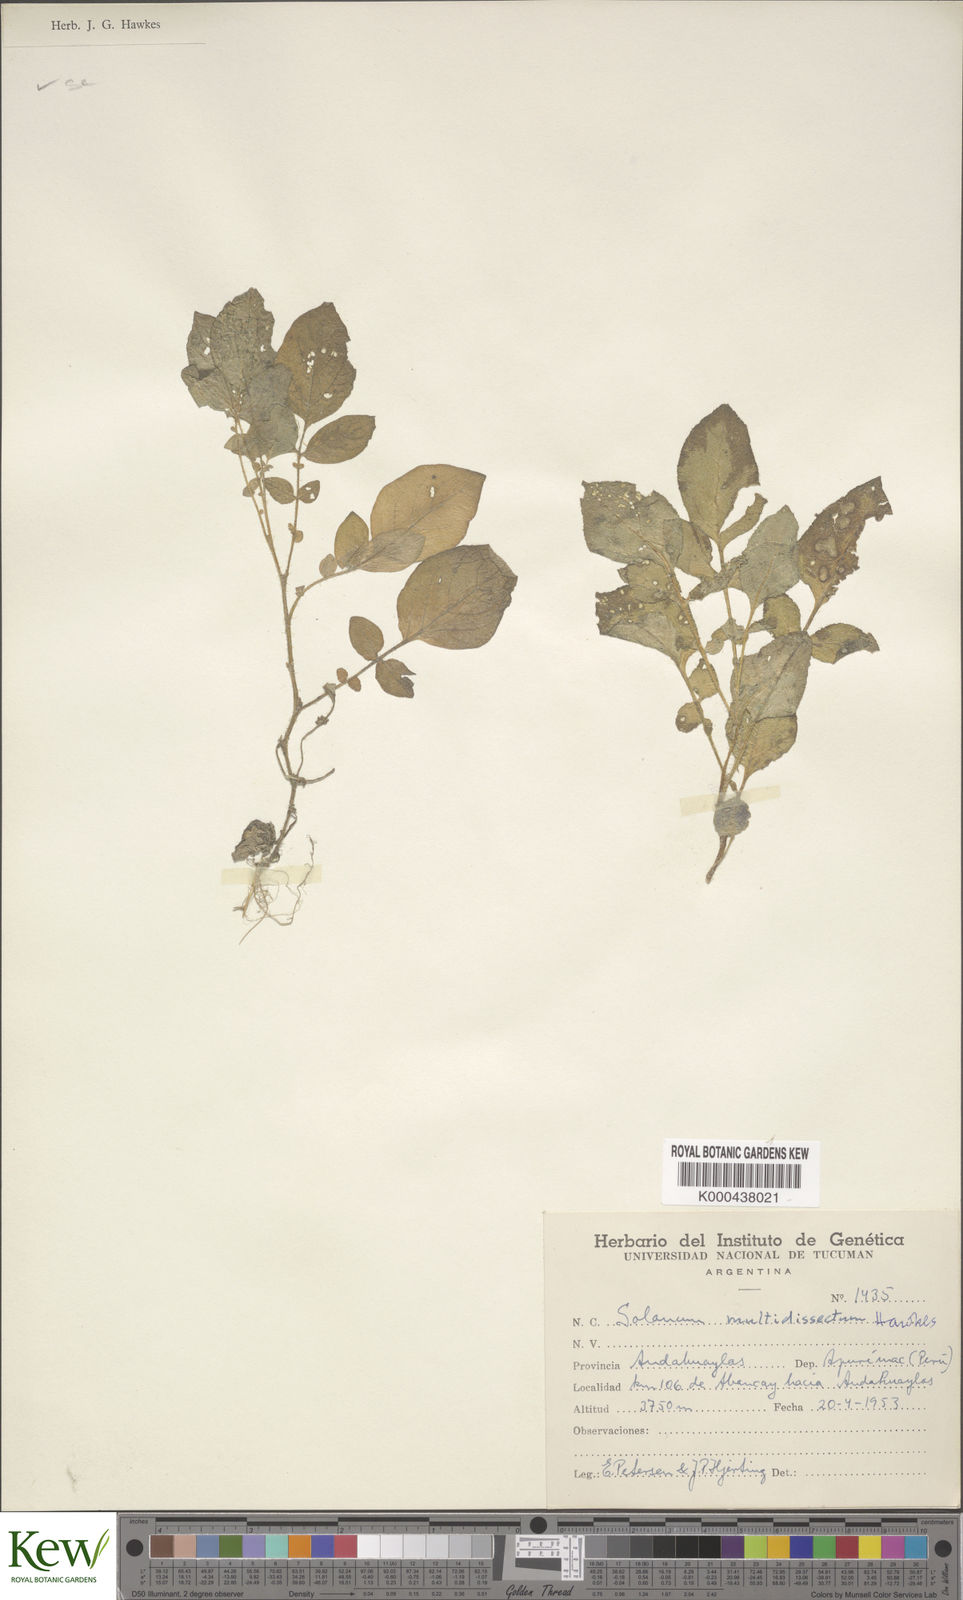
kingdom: Plantae
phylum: Tracheophyta
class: Magnoliopsida
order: Solanales
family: Solanaceae
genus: Solanum
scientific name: Solanum candolleanum
